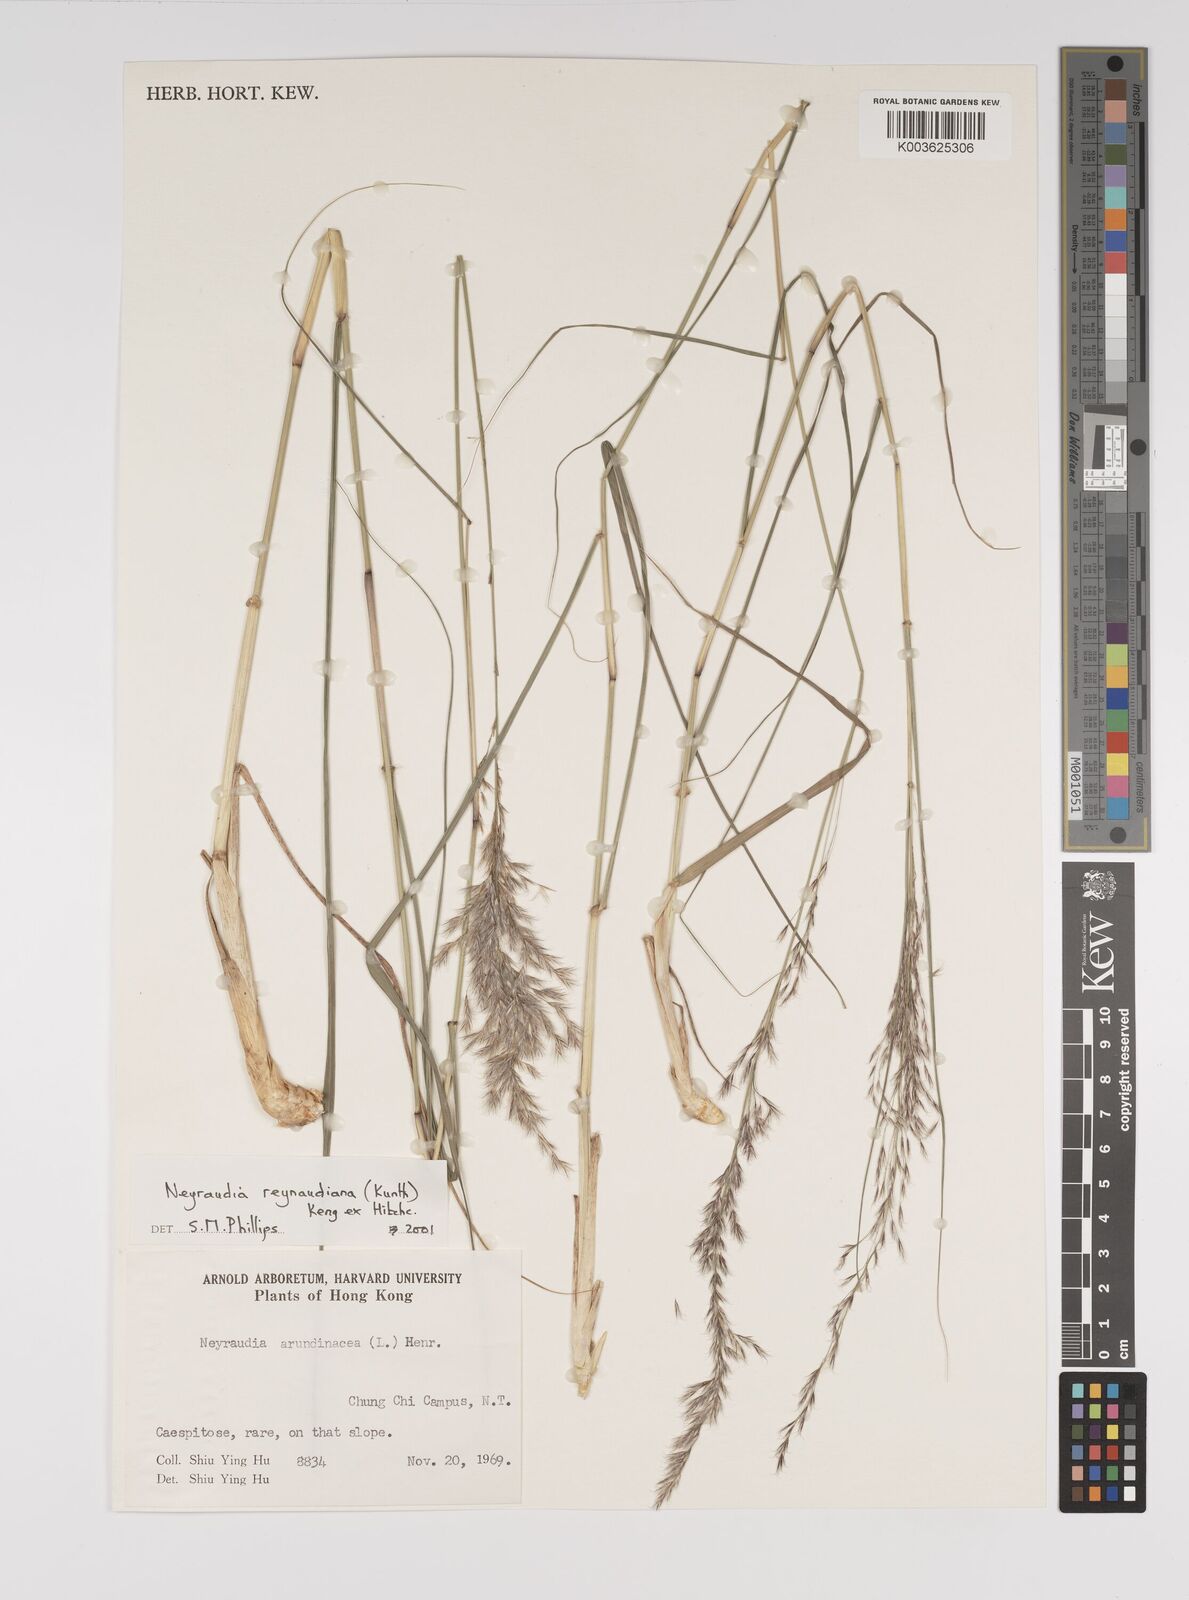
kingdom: Plantae
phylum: Tracheophyta
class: Liliopsida
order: Poales
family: Poaceae
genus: Neyraudia
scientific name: Neyraudia reynaudiana
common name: Silkreed
